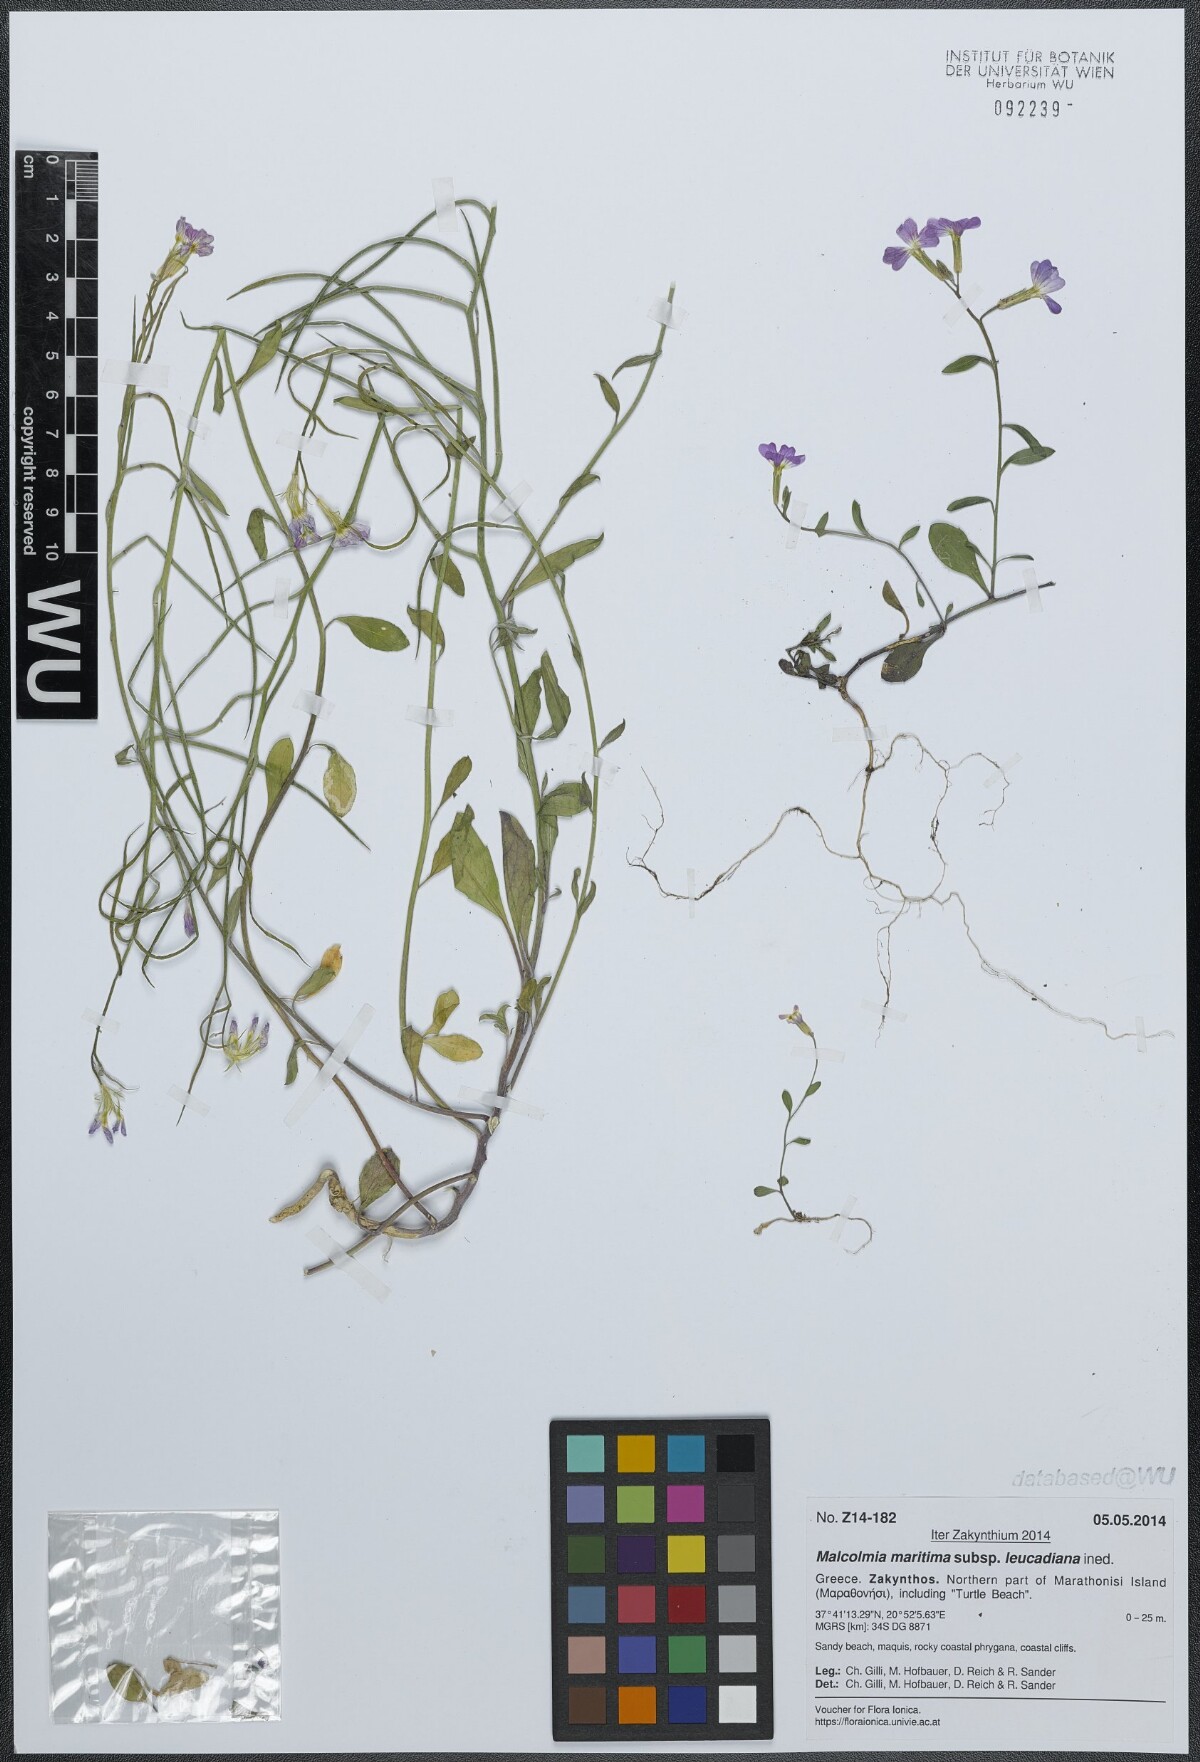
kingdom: Plantae
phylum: Tracheophyta
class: Magnoliopsida
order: Brassicales
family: Brassicaceae
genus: Malcolmia
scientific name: Malcolmia maritima
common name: Virginia stock
